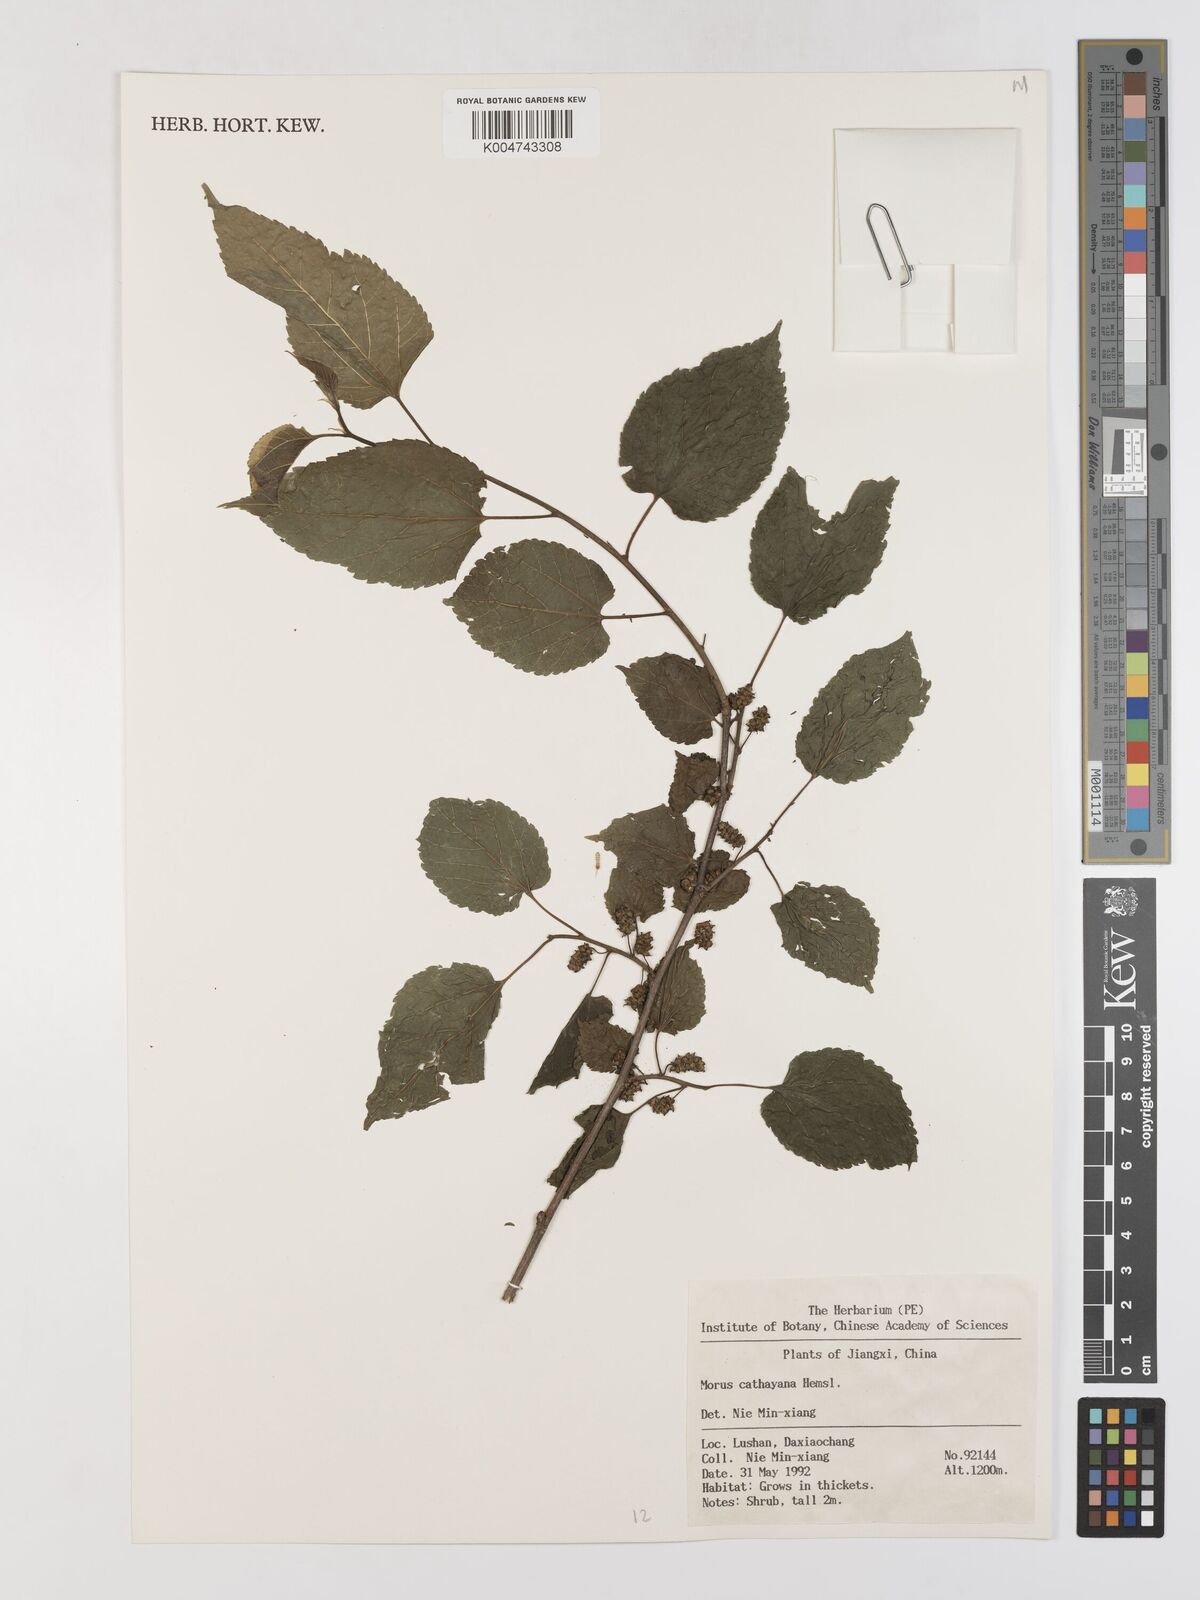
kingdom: Plantae
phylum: Tracheophyta
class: Magnoliopsida
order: Rosales
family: Moraceae
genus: Morus
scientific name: Morus cathayana
